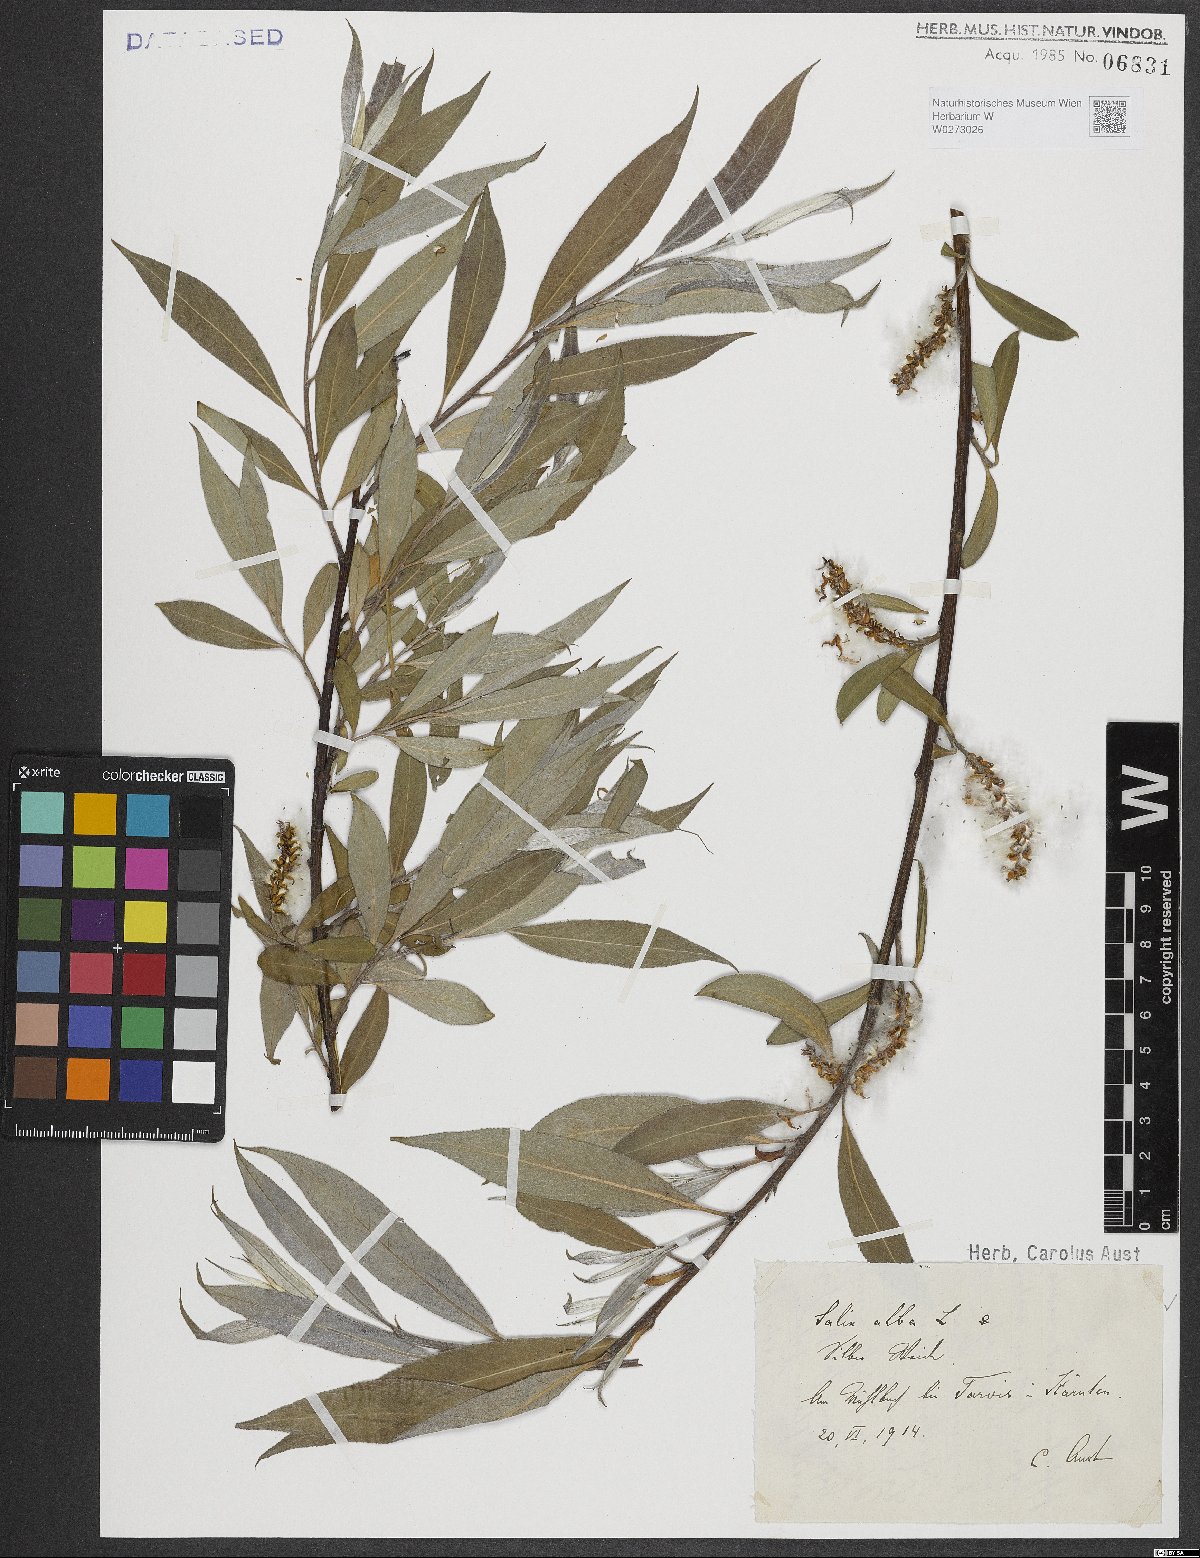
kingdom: Plantae
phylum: Tracheophyta
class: Magnoliopsida
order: Malpighiales
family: Salicaceae
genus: Salix
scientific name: Salix alba
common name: White willow
